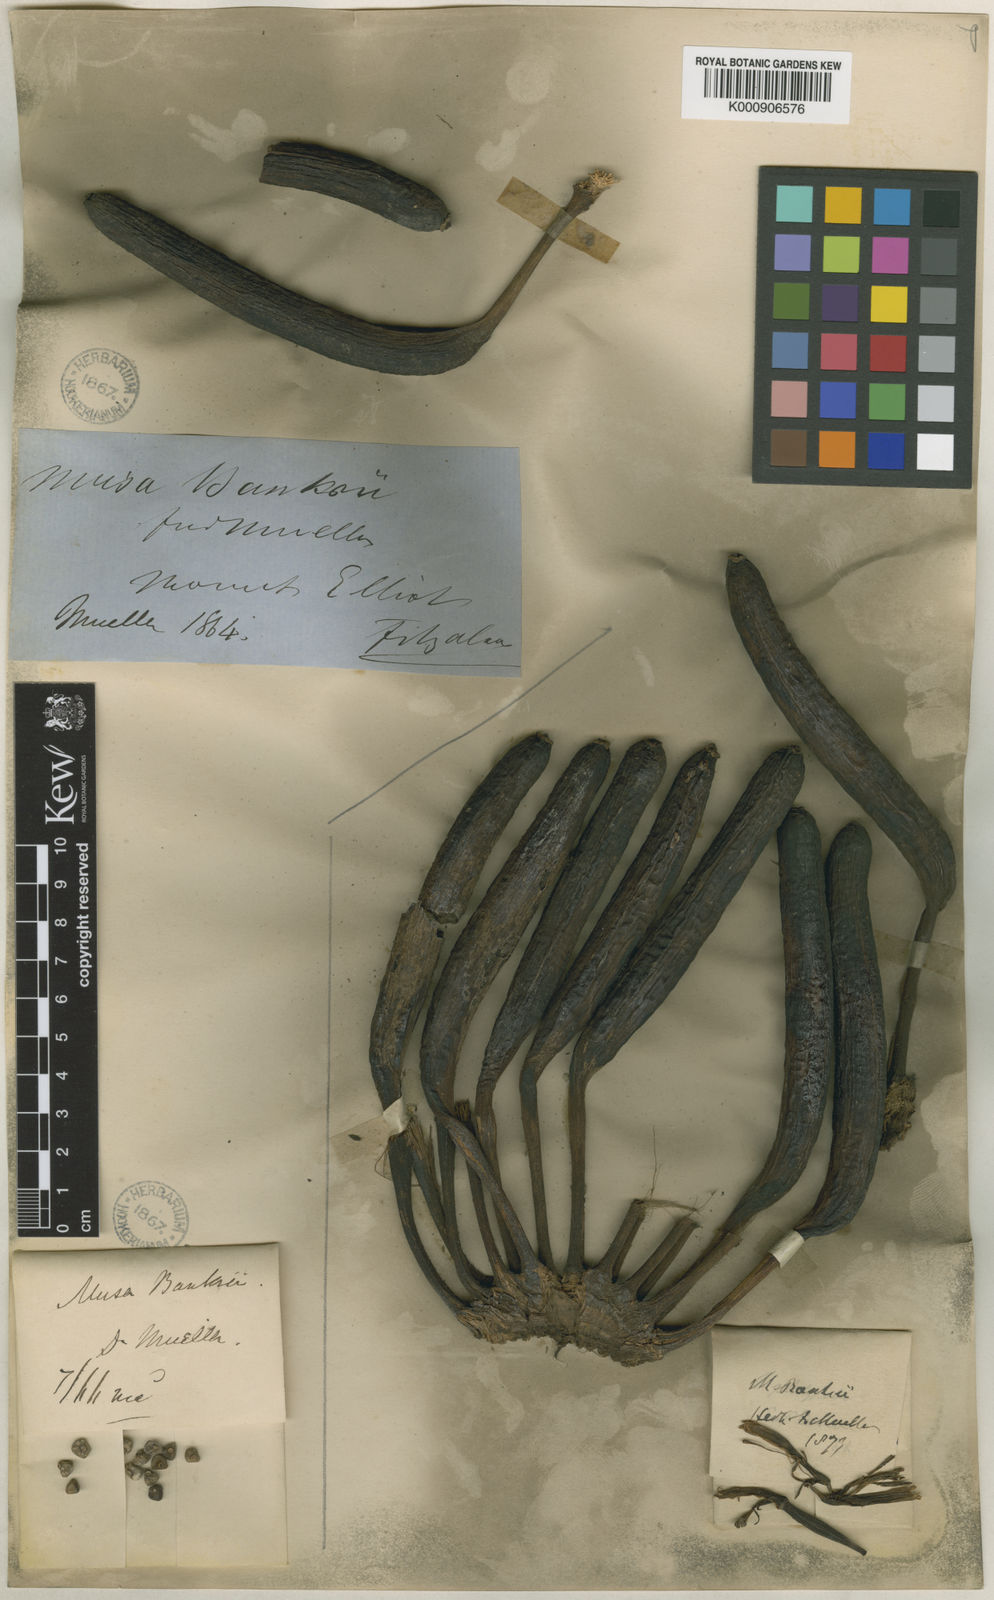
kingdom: Plantae
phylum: Tracheophyta
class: Liliopsida
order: Zingiberales
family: Musaceae
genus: Musa
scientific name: Musa banksii
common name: Maroon-stemmed banana
